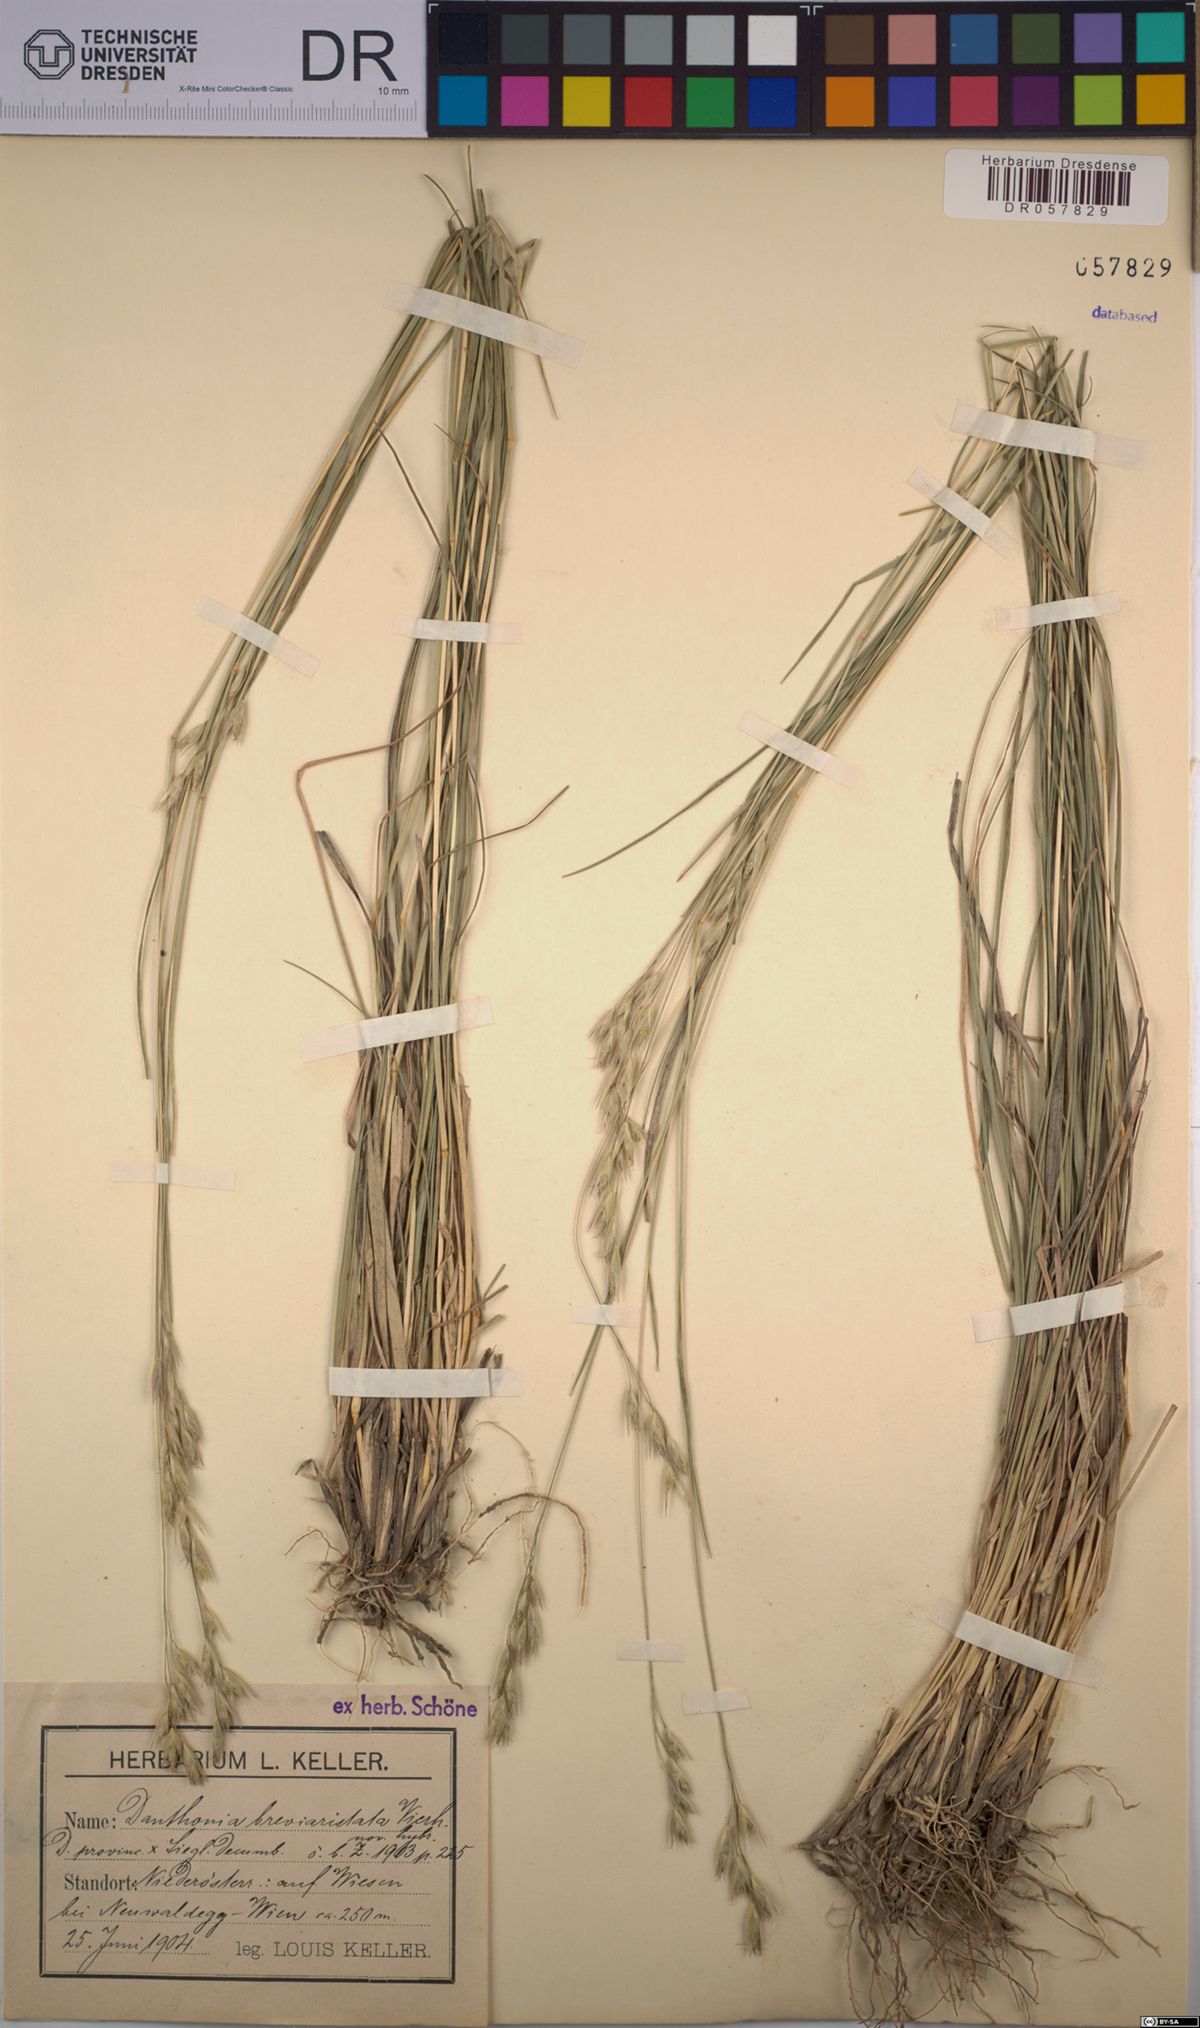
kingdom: Plantae
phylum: Tracheophyta
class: Liliopsida
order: Poales
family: Poaceae
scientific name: Poaceae
